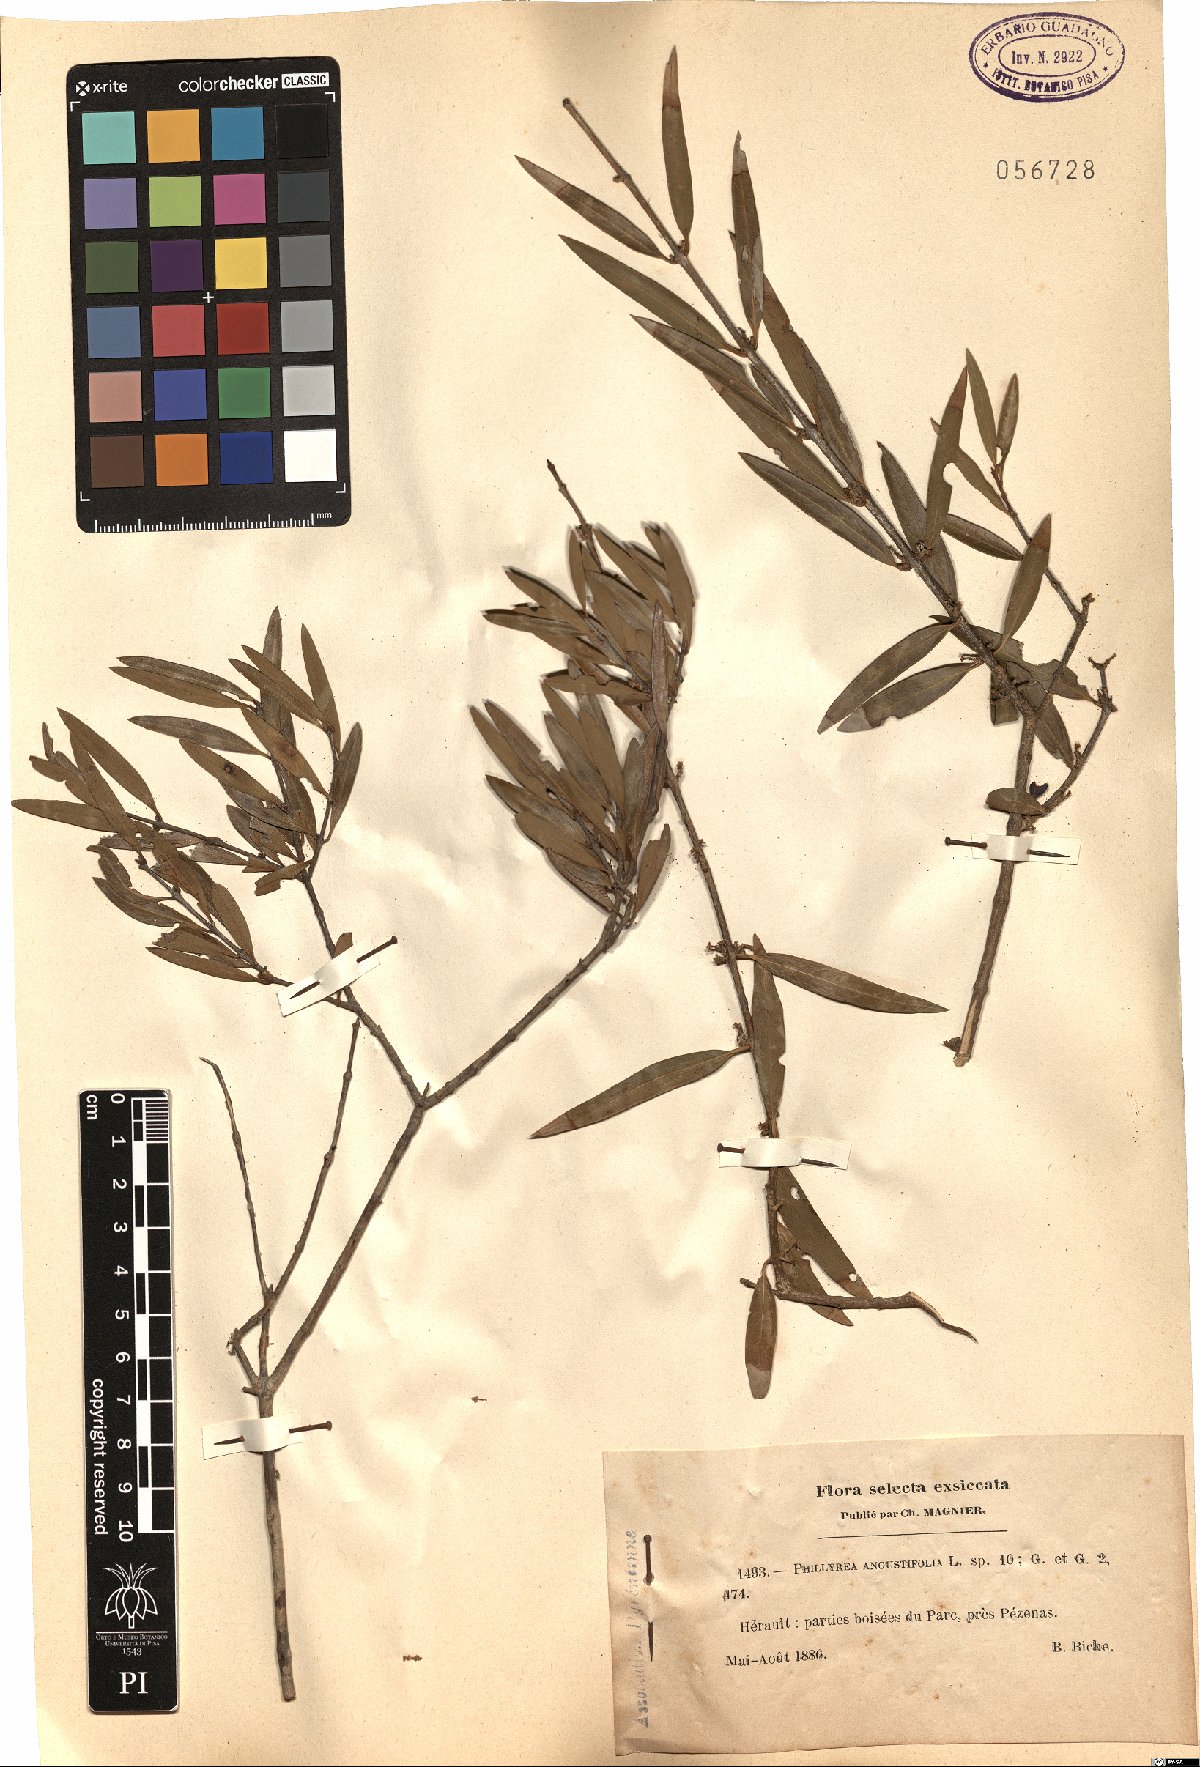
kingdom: Plantae
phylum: Tracheophyta
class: Magnoliopsida
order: Lamiales
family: Oleaceae
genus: Phillyrea
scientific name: Phillyrea angustifolia
